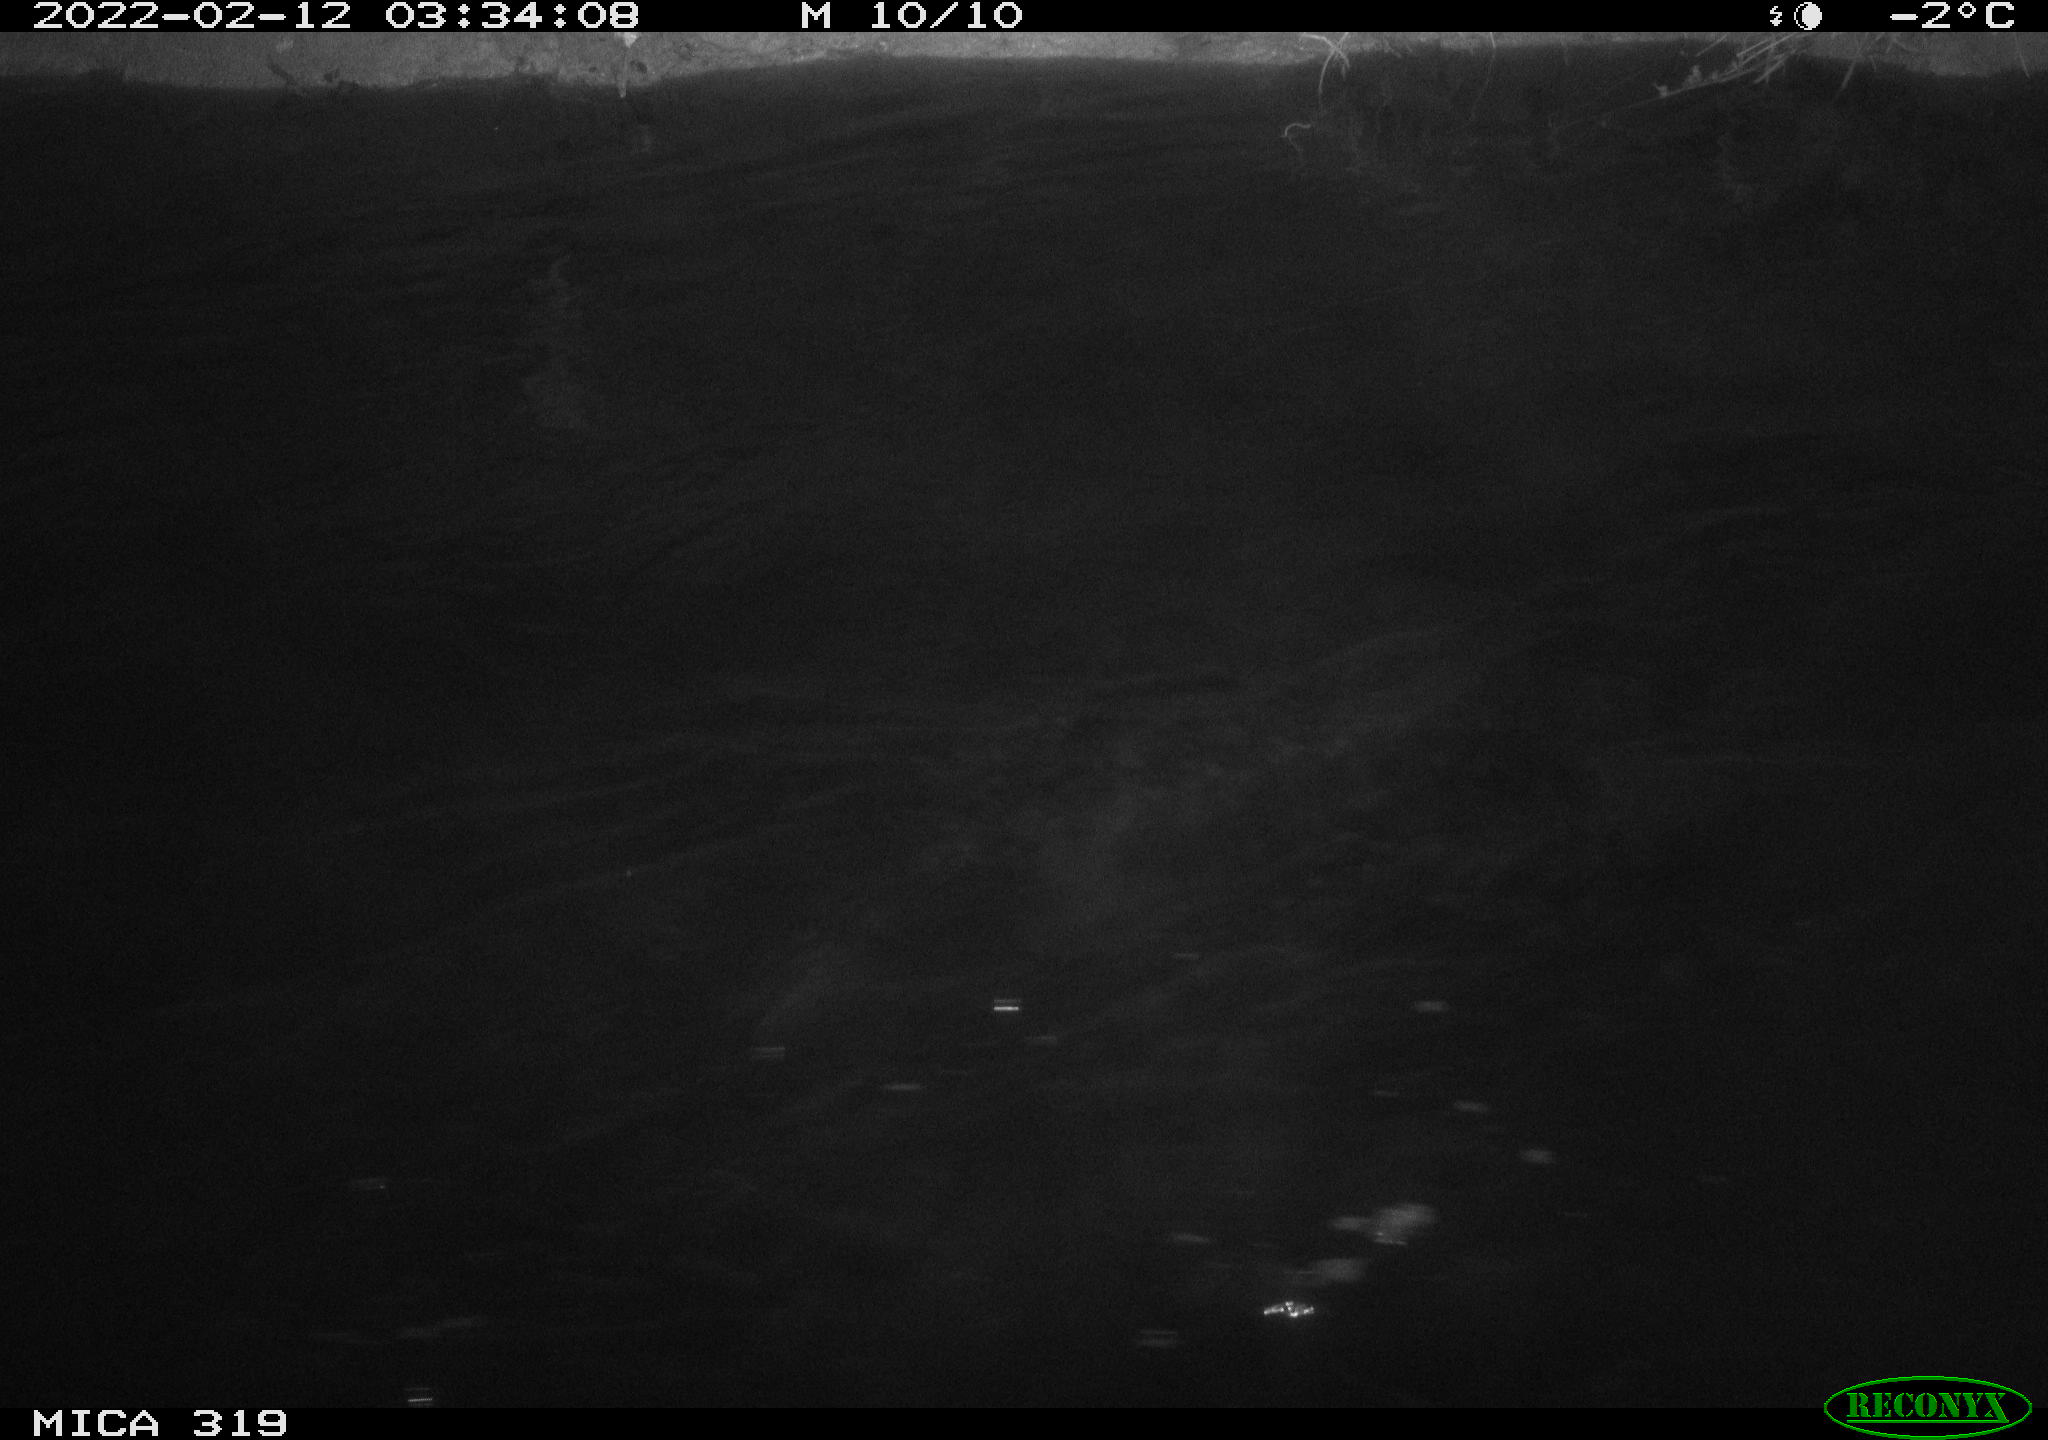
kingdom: Animalia
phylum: Chordata
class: Aves
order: Anseriformes
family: Anatidae
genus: Anas
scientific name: Anas platyrhynchos
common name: Mallard
